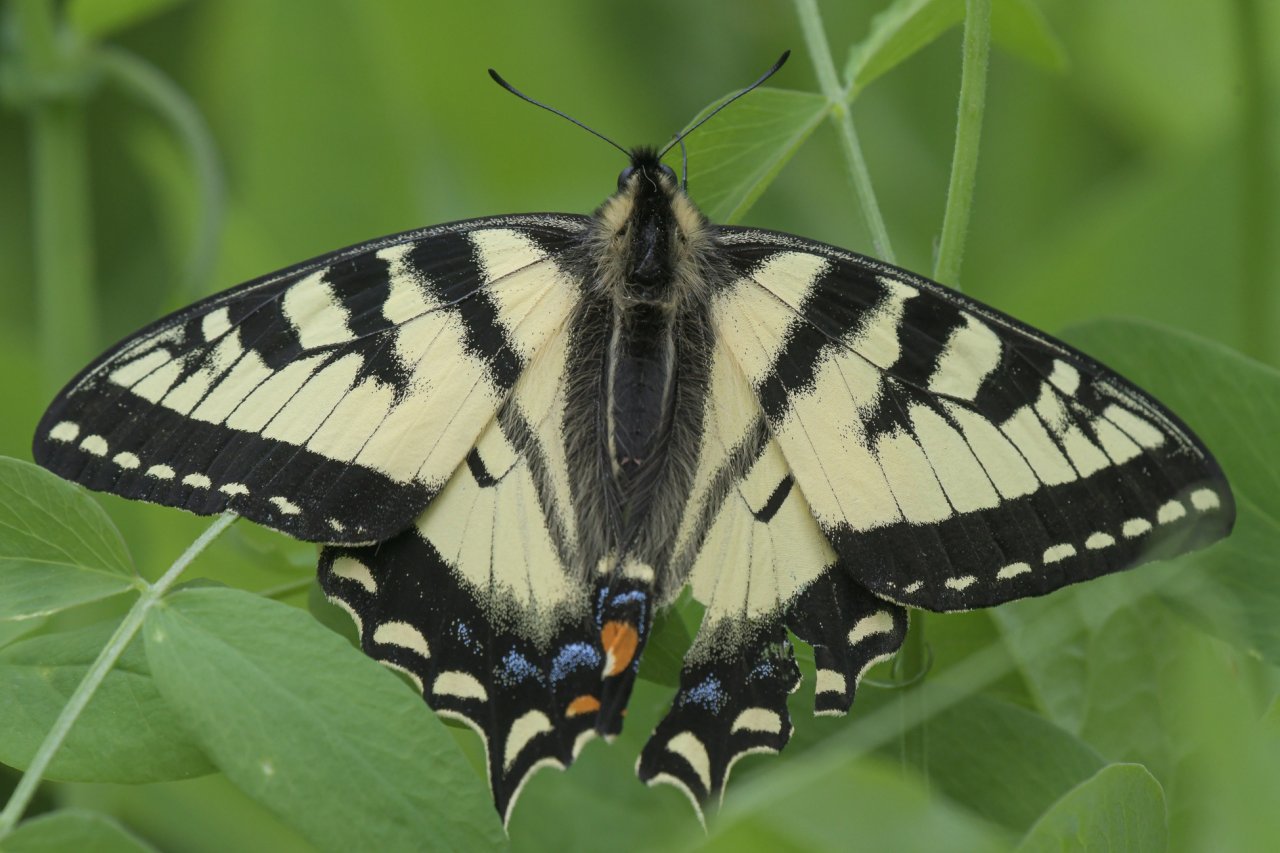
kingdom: Animalia
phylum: Arthropoda
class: Insecta
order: Lepidoptera
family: Papilionidae
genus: Pterourus
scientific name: Pterourus canadensis
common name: Canadian Tiger Swallowtail
